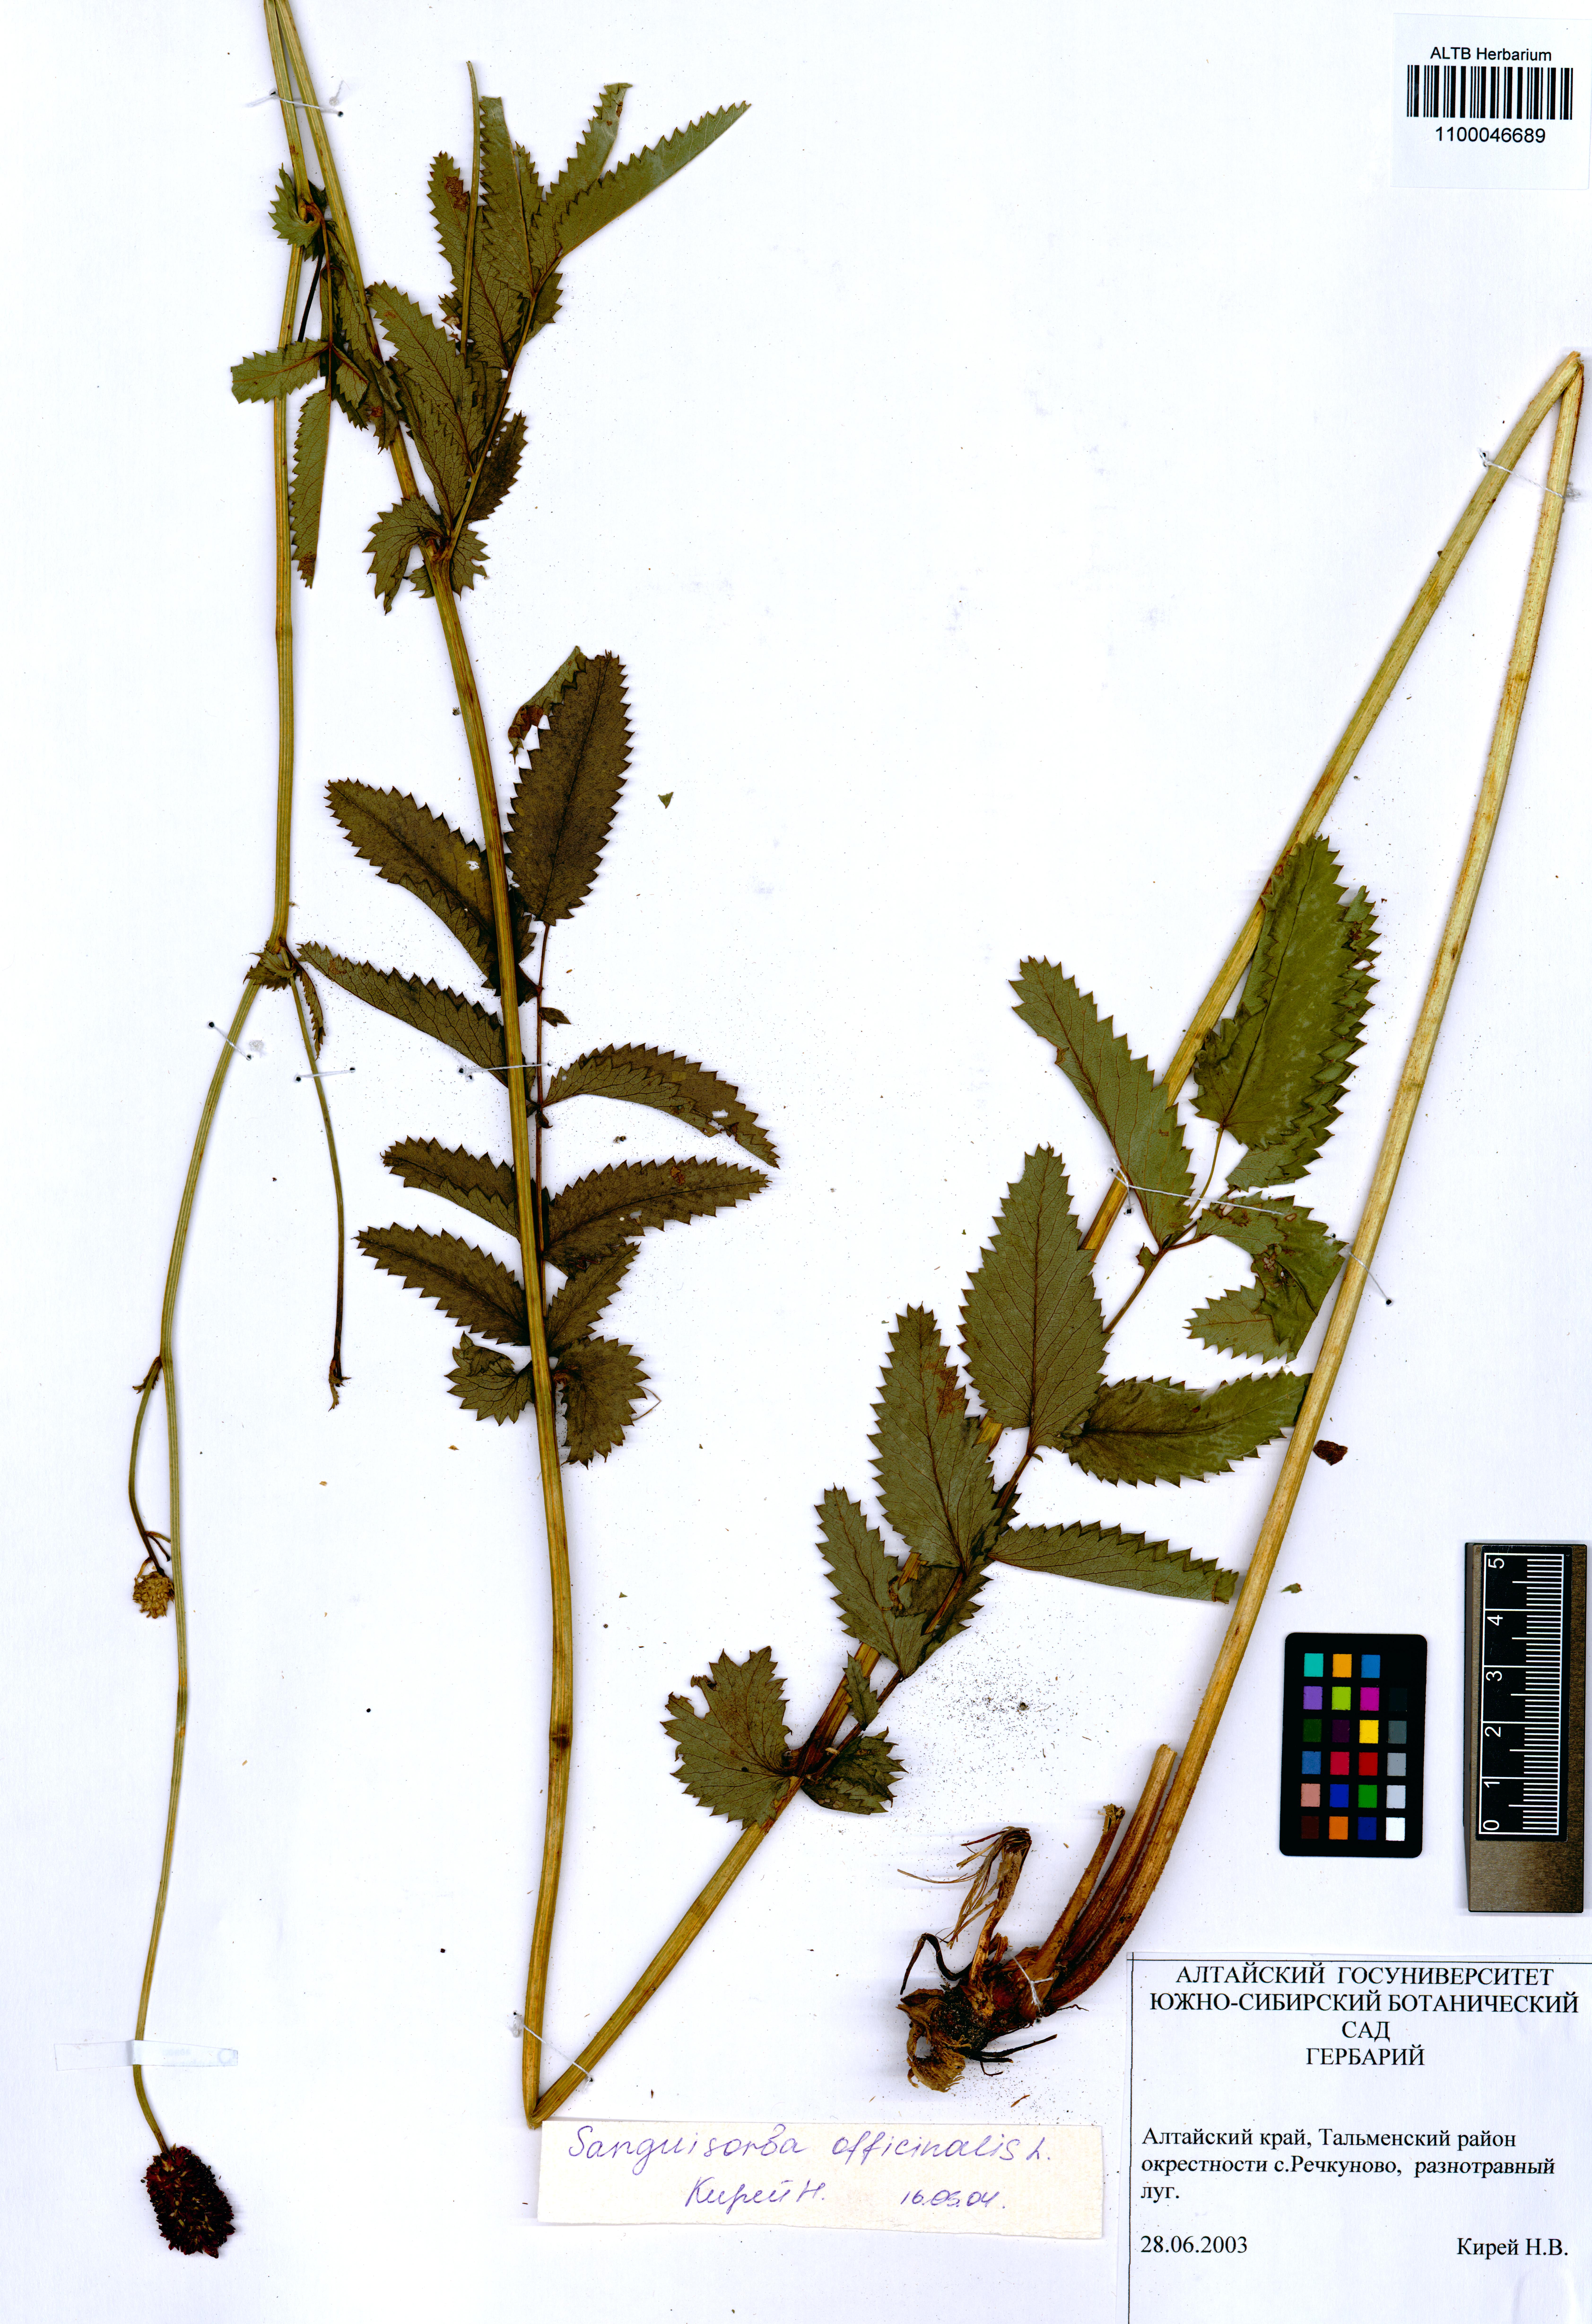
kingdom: Plantae
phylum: Tracheophyta
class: Magnoliopsida
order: Rosales
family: Rosaceae
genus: Sanguisorba
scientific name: Sanguisorba officinalis
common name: Great burnet
